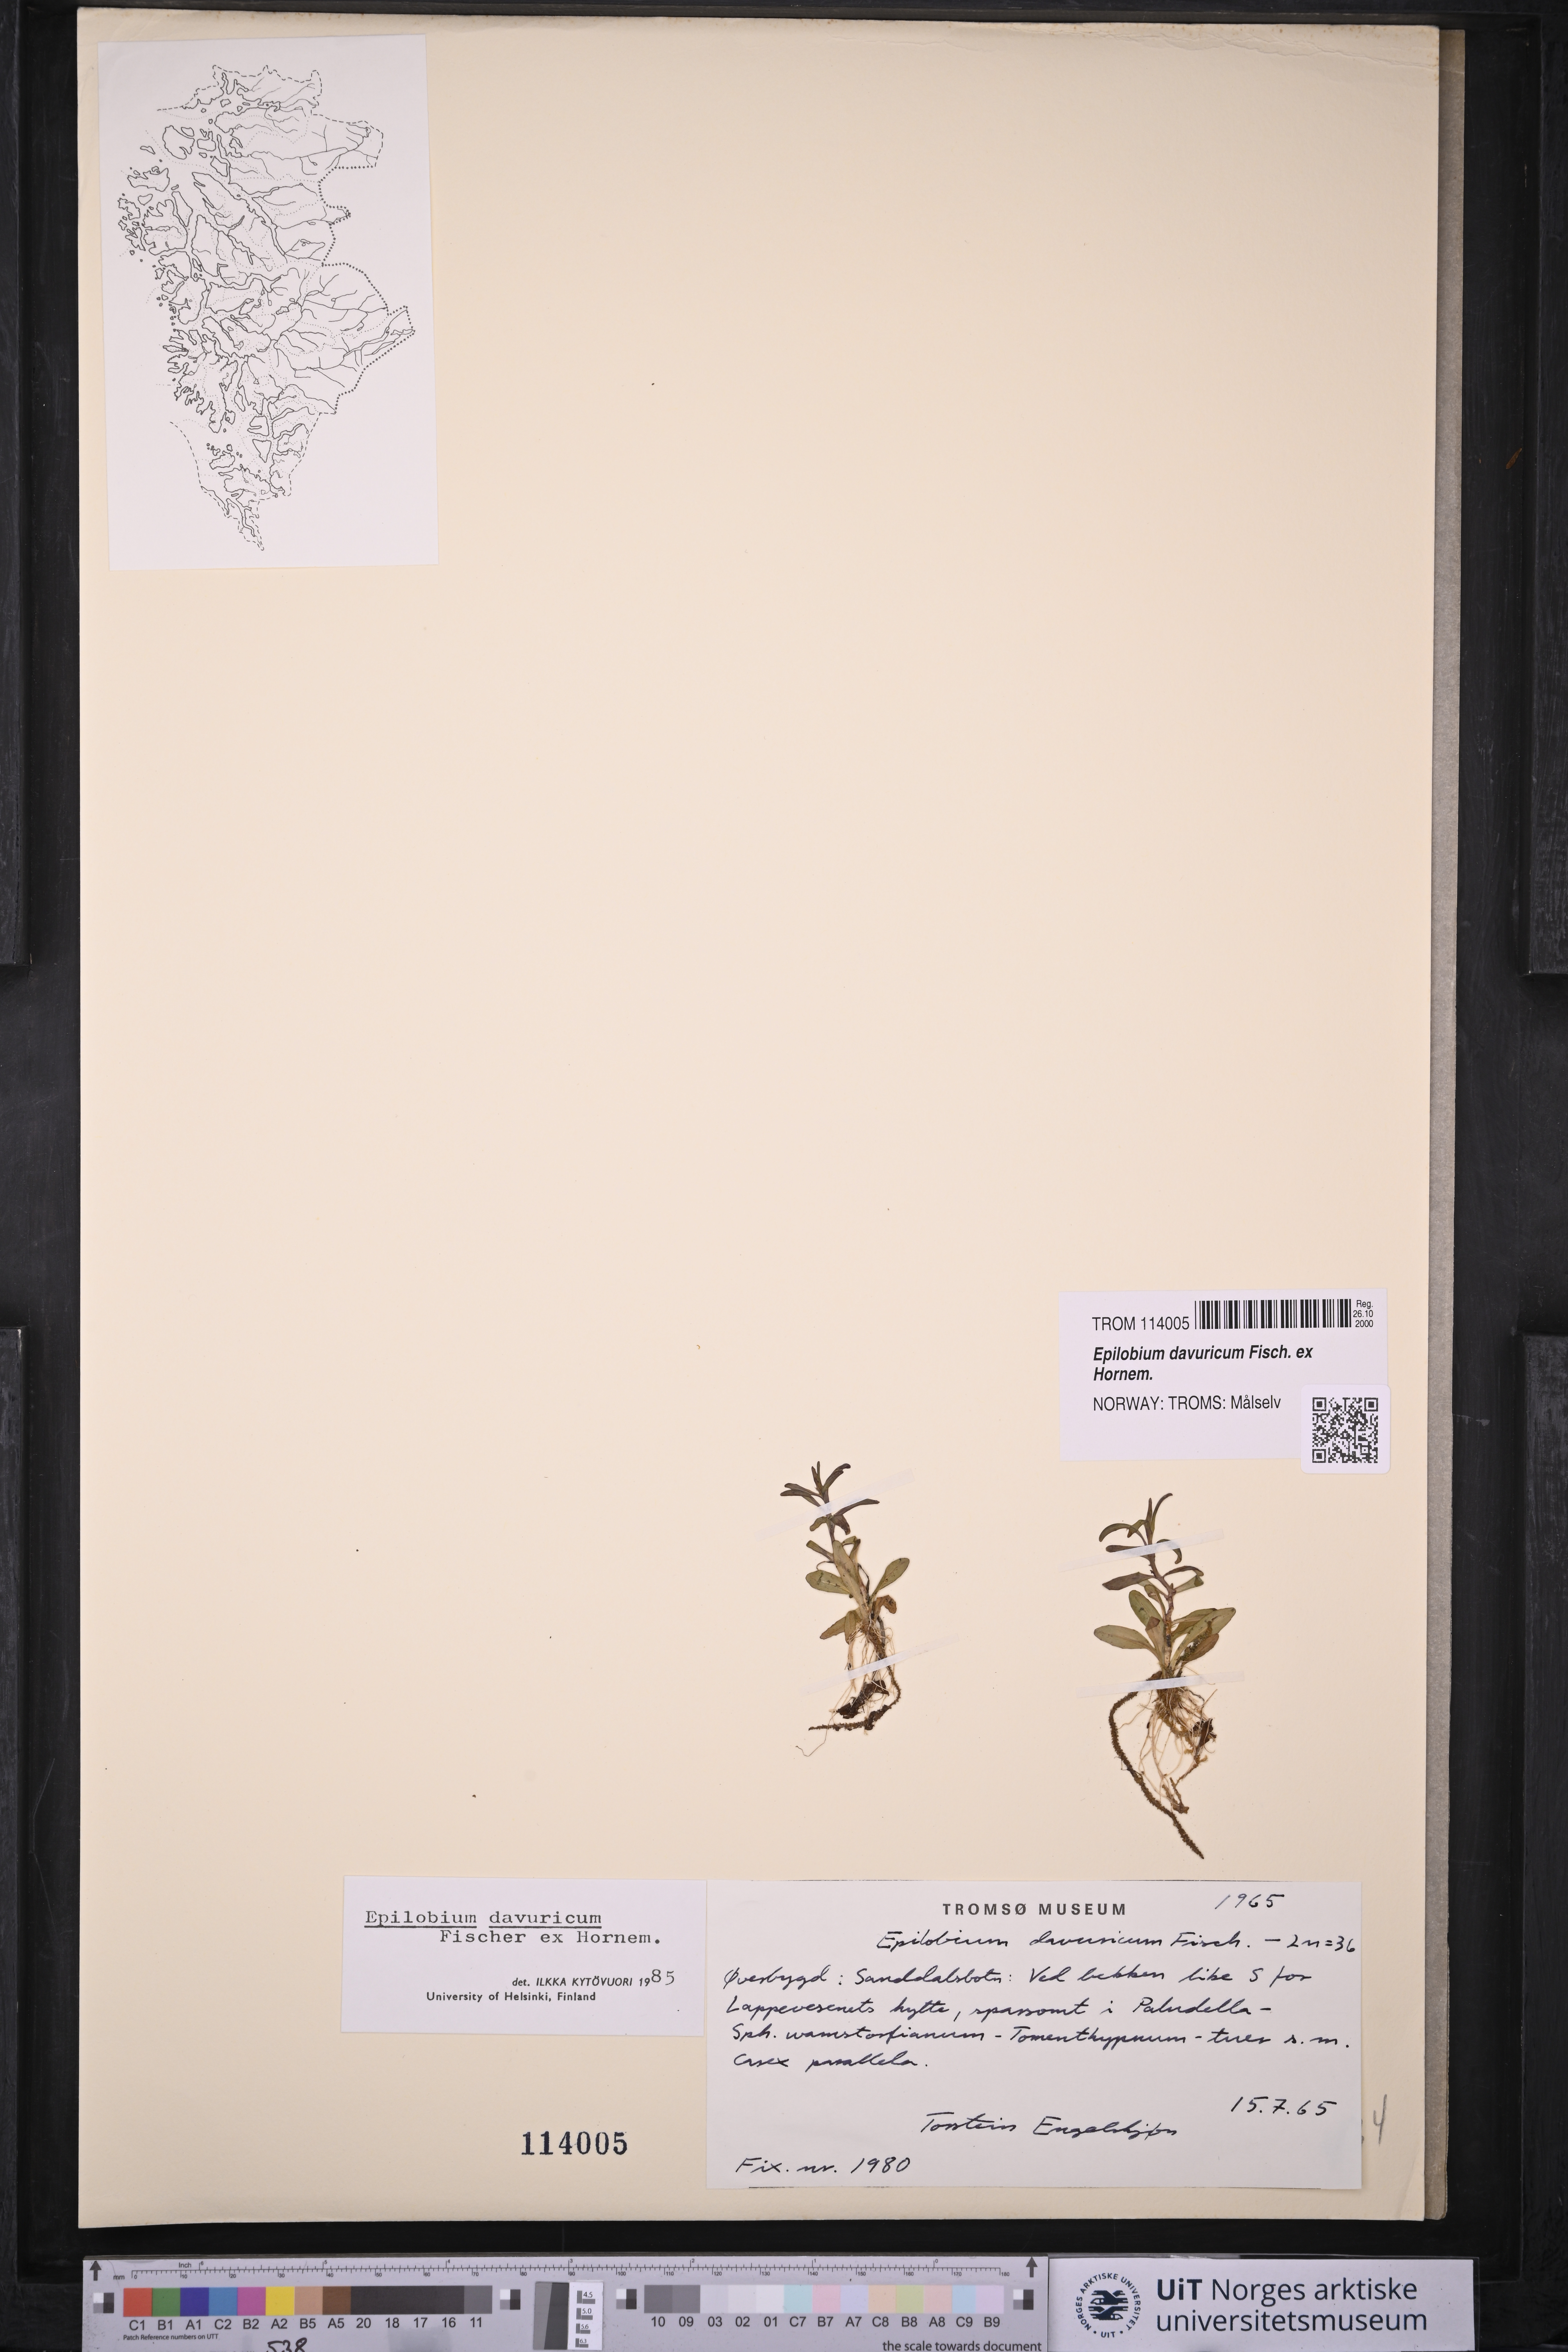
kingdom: Plantae
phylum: Tracheophyta
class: Magnoliopsida
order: Myrtales
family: Onagraceae
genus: Epilobium
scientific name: Epilobium davuricum
